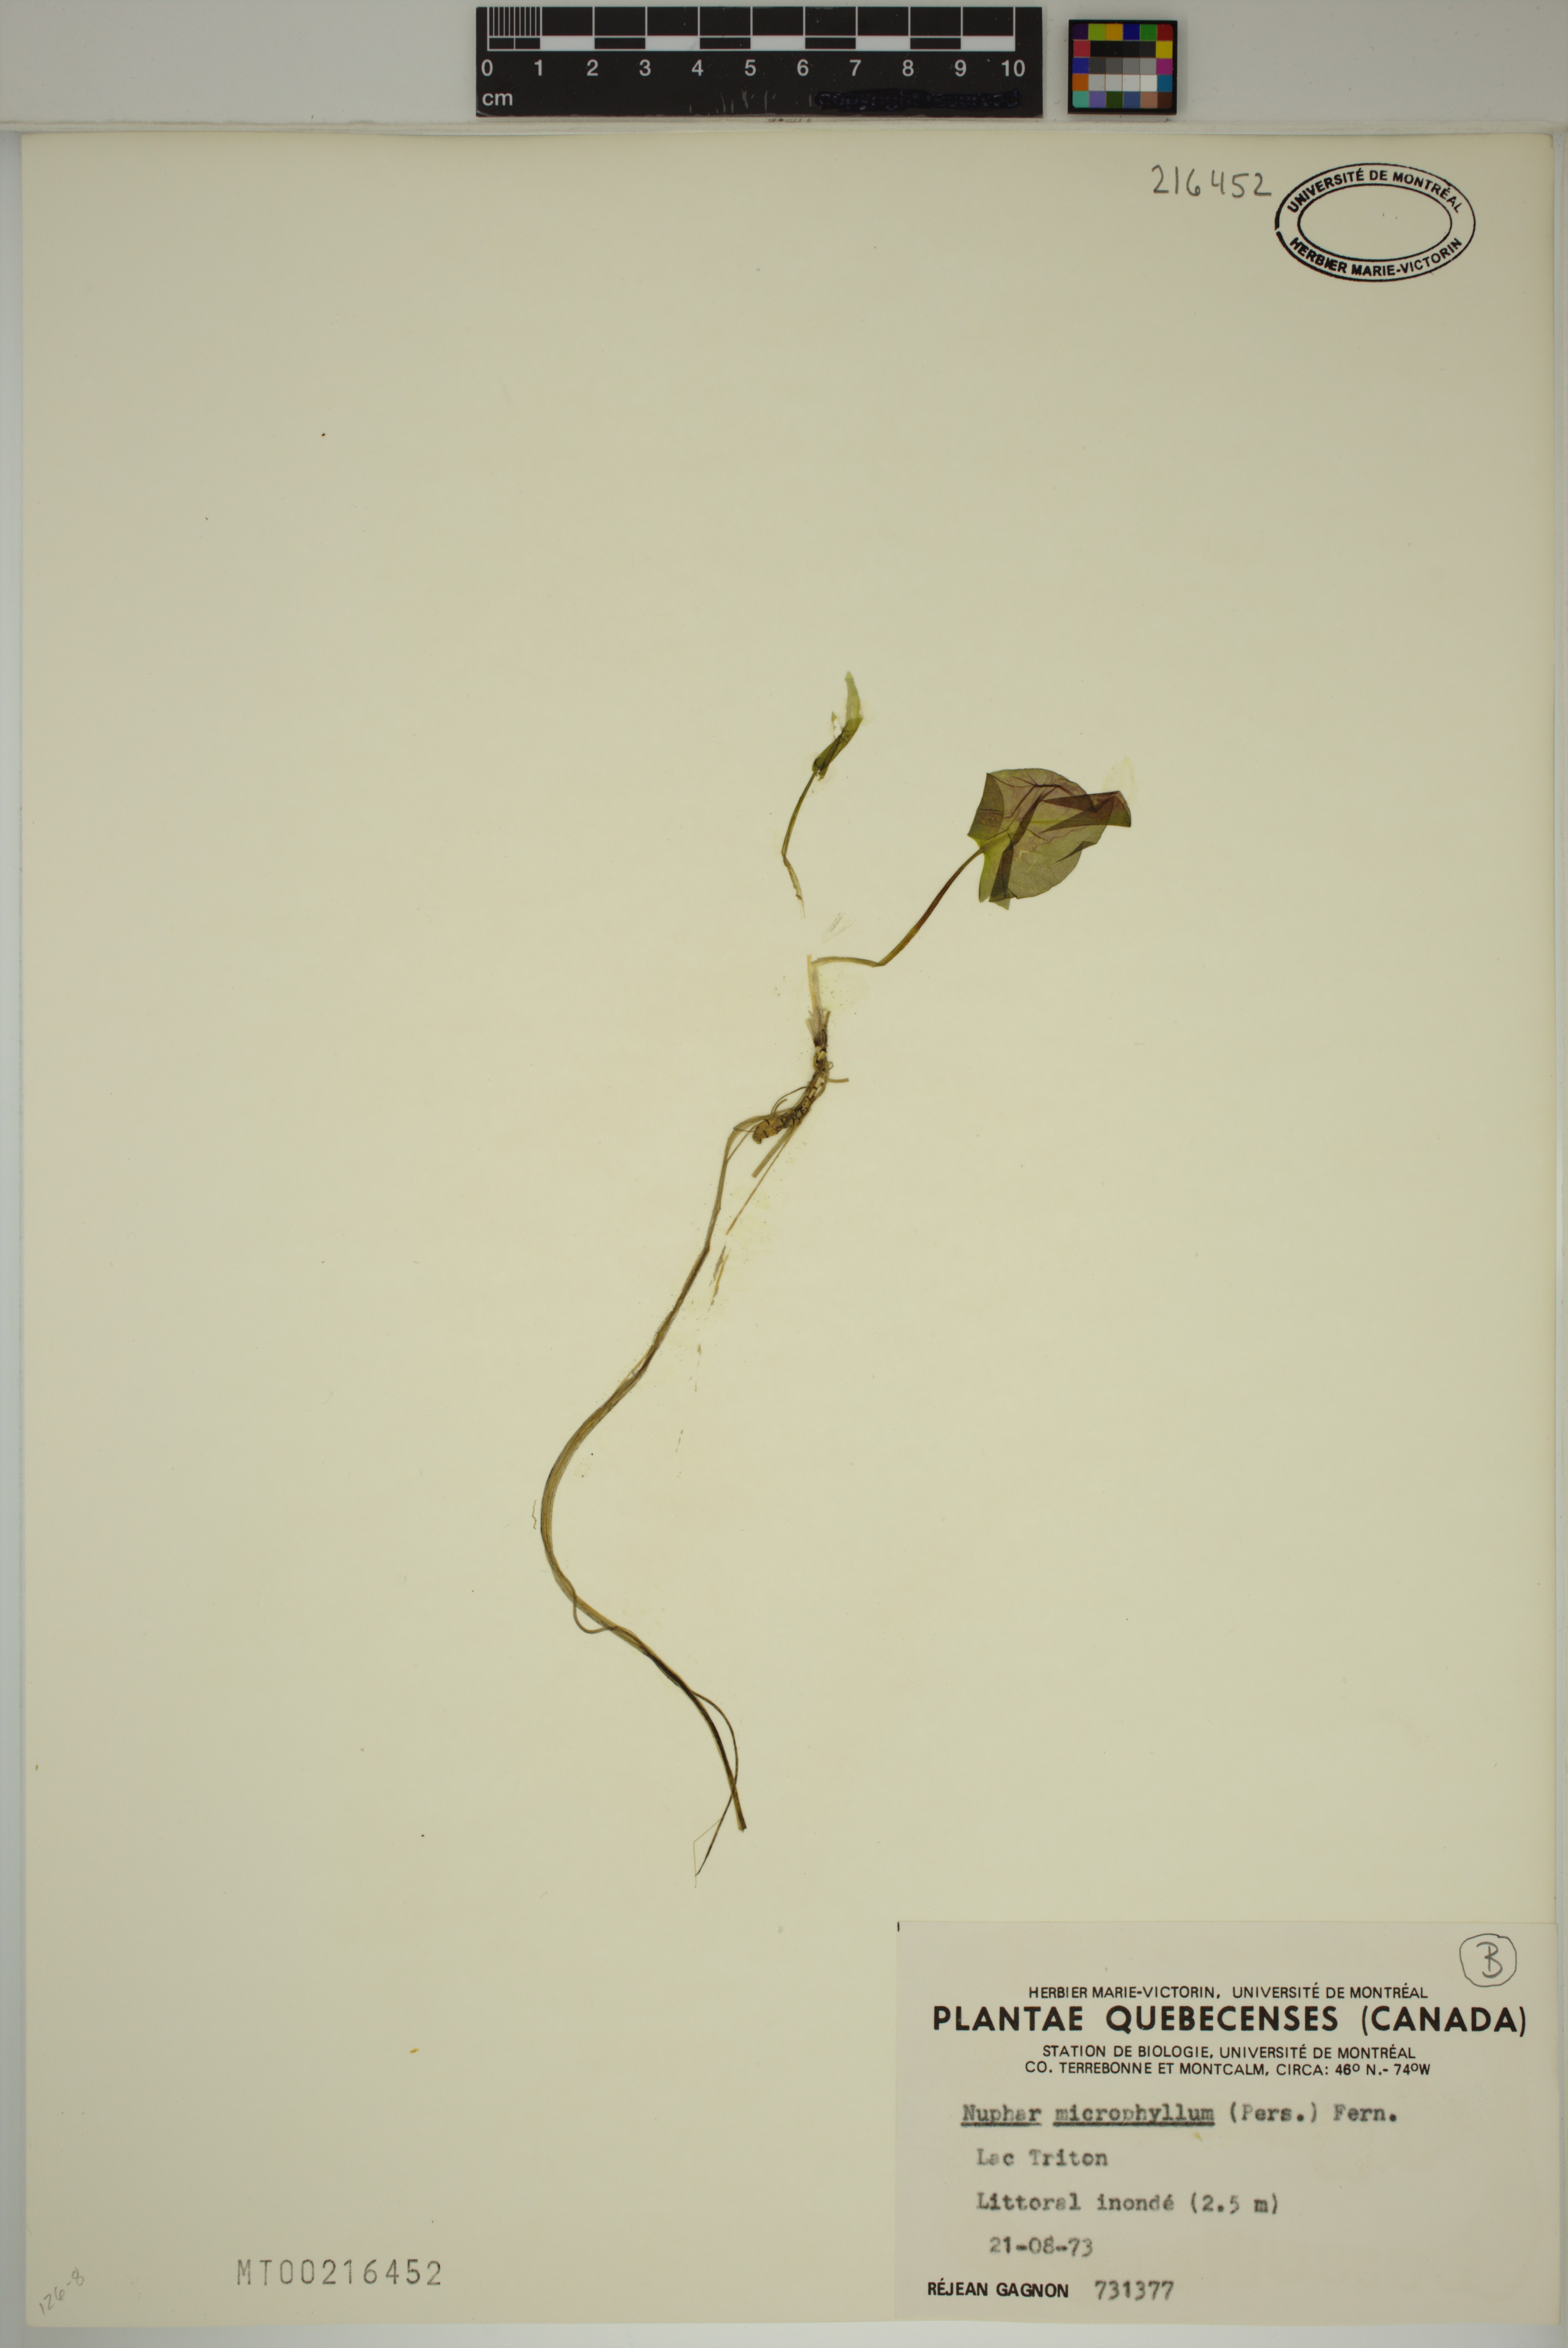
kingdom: Plantae
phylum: Tracheophyta
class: Magnoliopsida
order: Nymphaeales
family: Nymphaeaceae
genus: Nuphar
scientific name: Nuphar microphylla
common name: Small pond-lily
